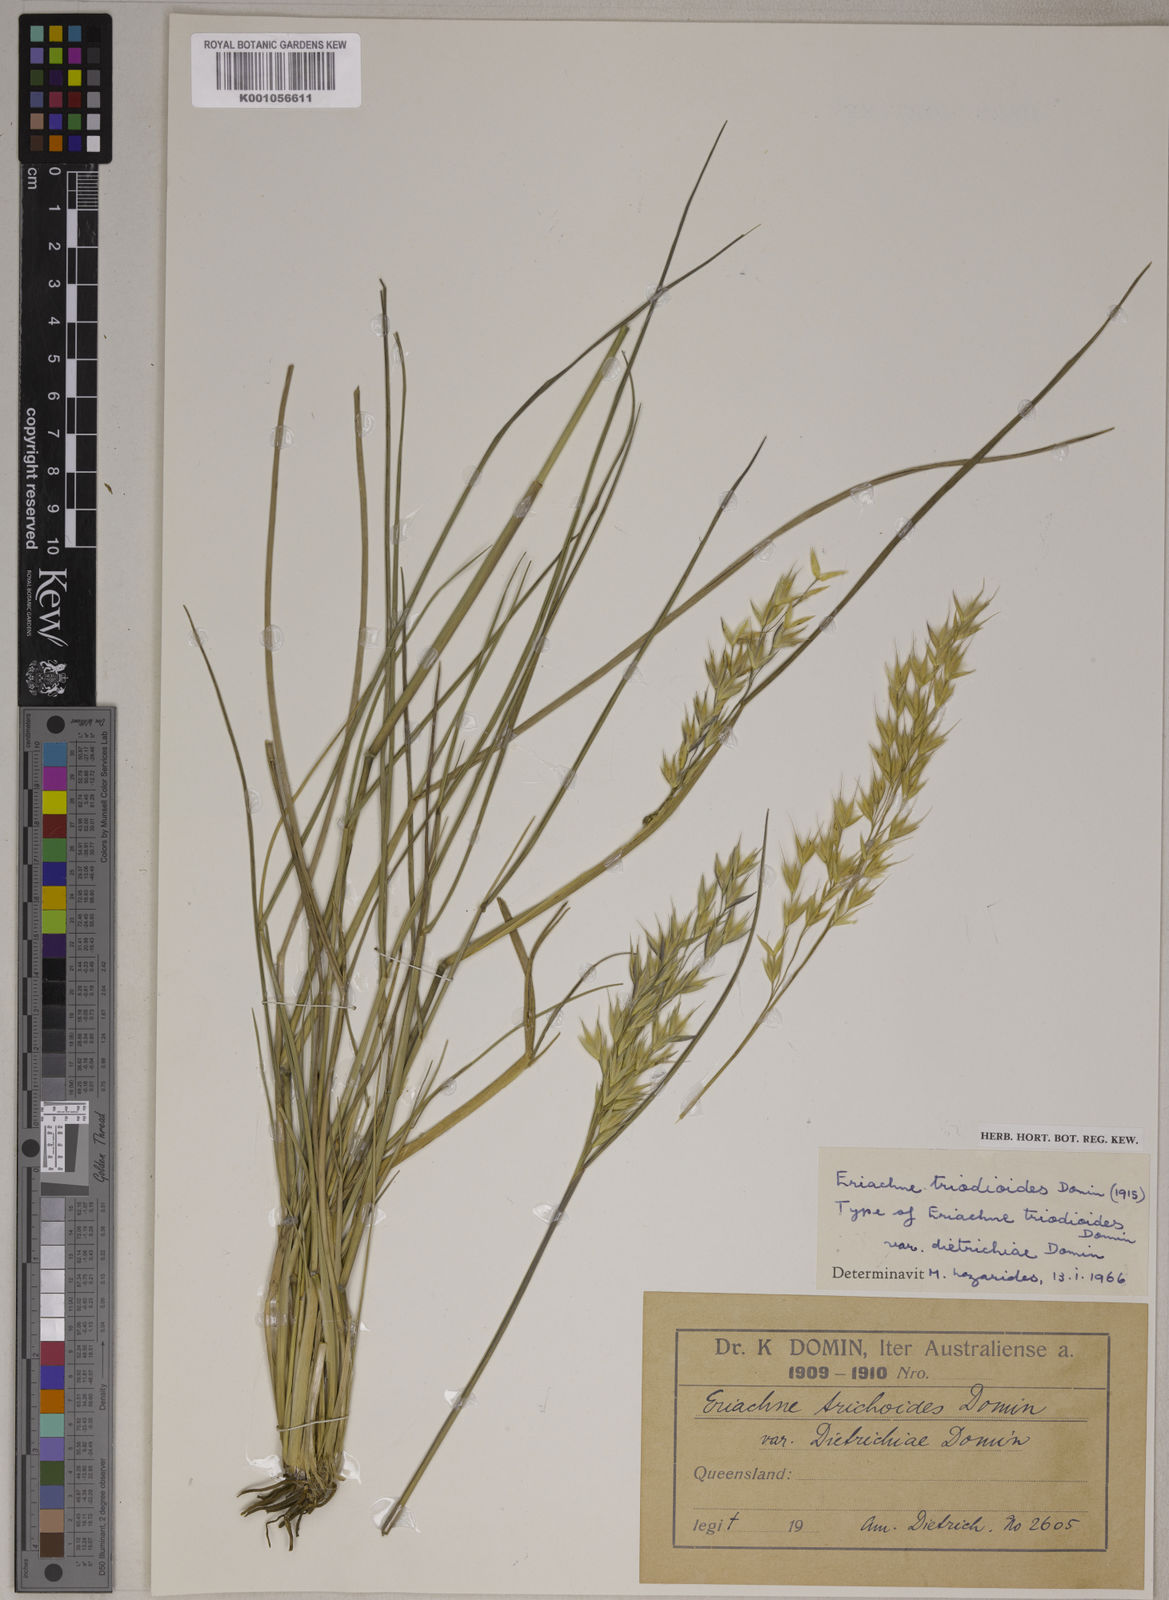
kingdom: Plantae
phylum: Tracheophyta
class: Liliopsida
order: Poales
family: Poaceae
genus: Eriachne
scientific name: Eriachne triodioides
